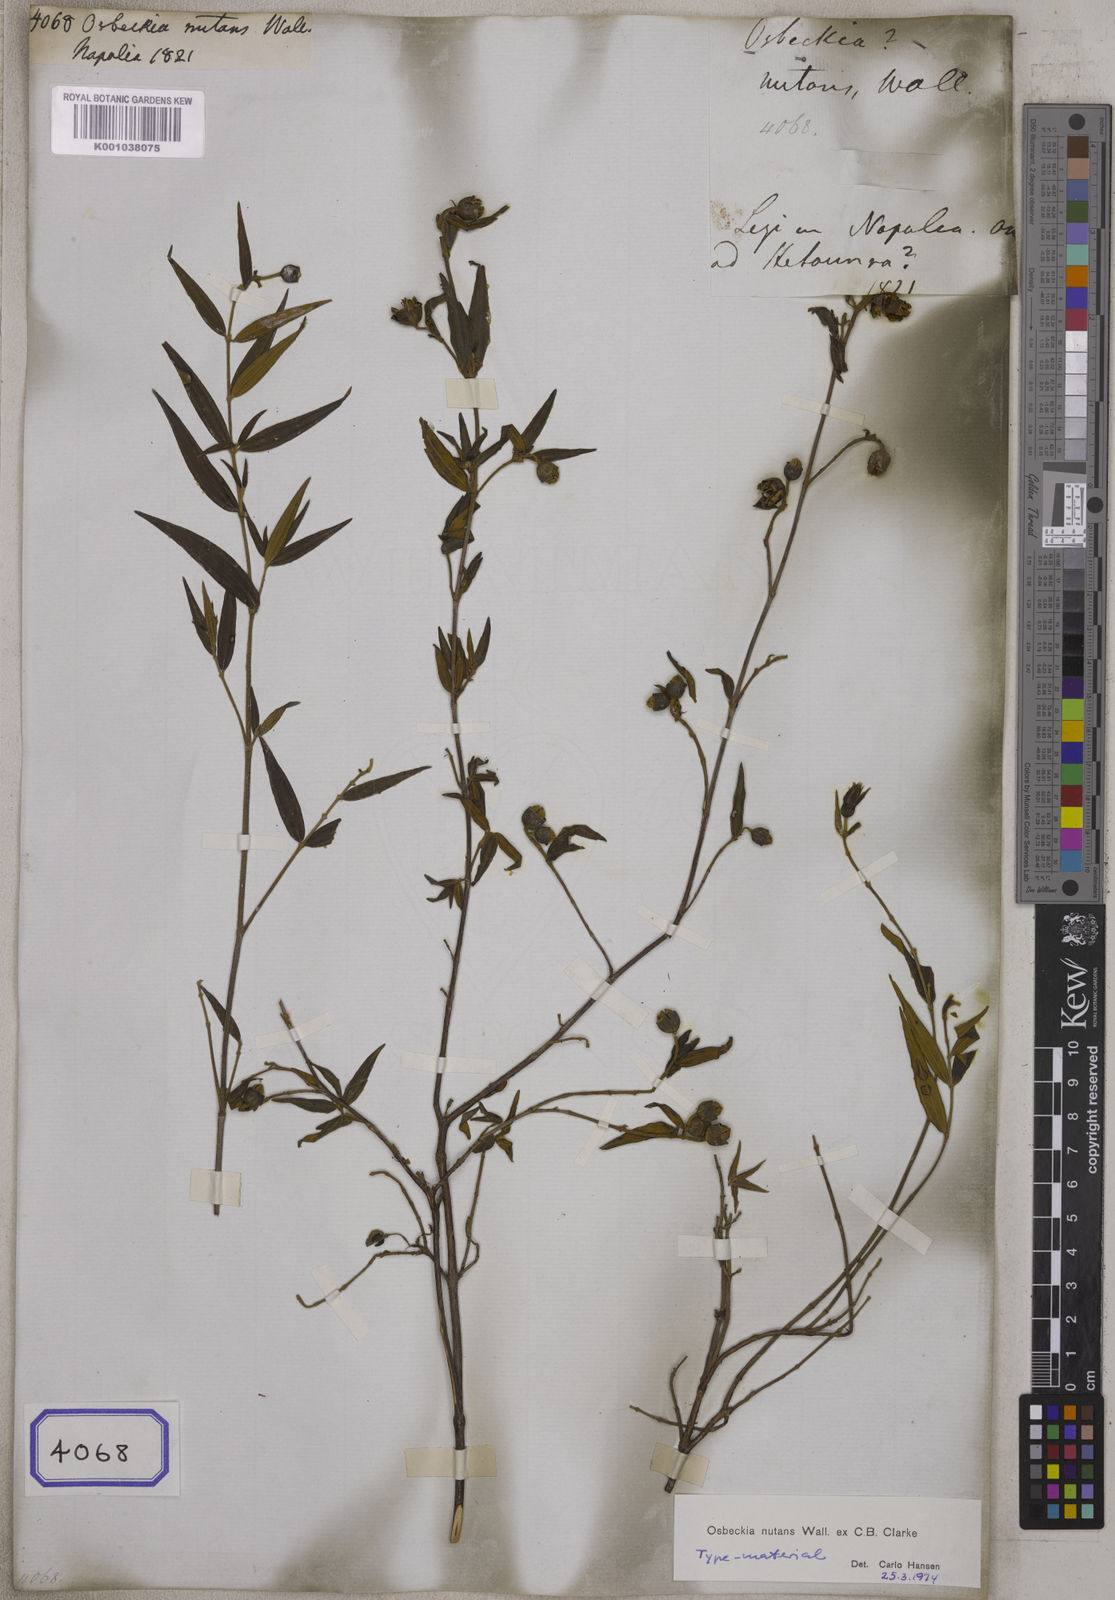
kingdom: Plantae
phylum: Tracheophyta
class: Magnoliopsida
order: Myrtales
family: Melastomataceae
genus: Osbeckia
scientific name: Osbeckia nutans
